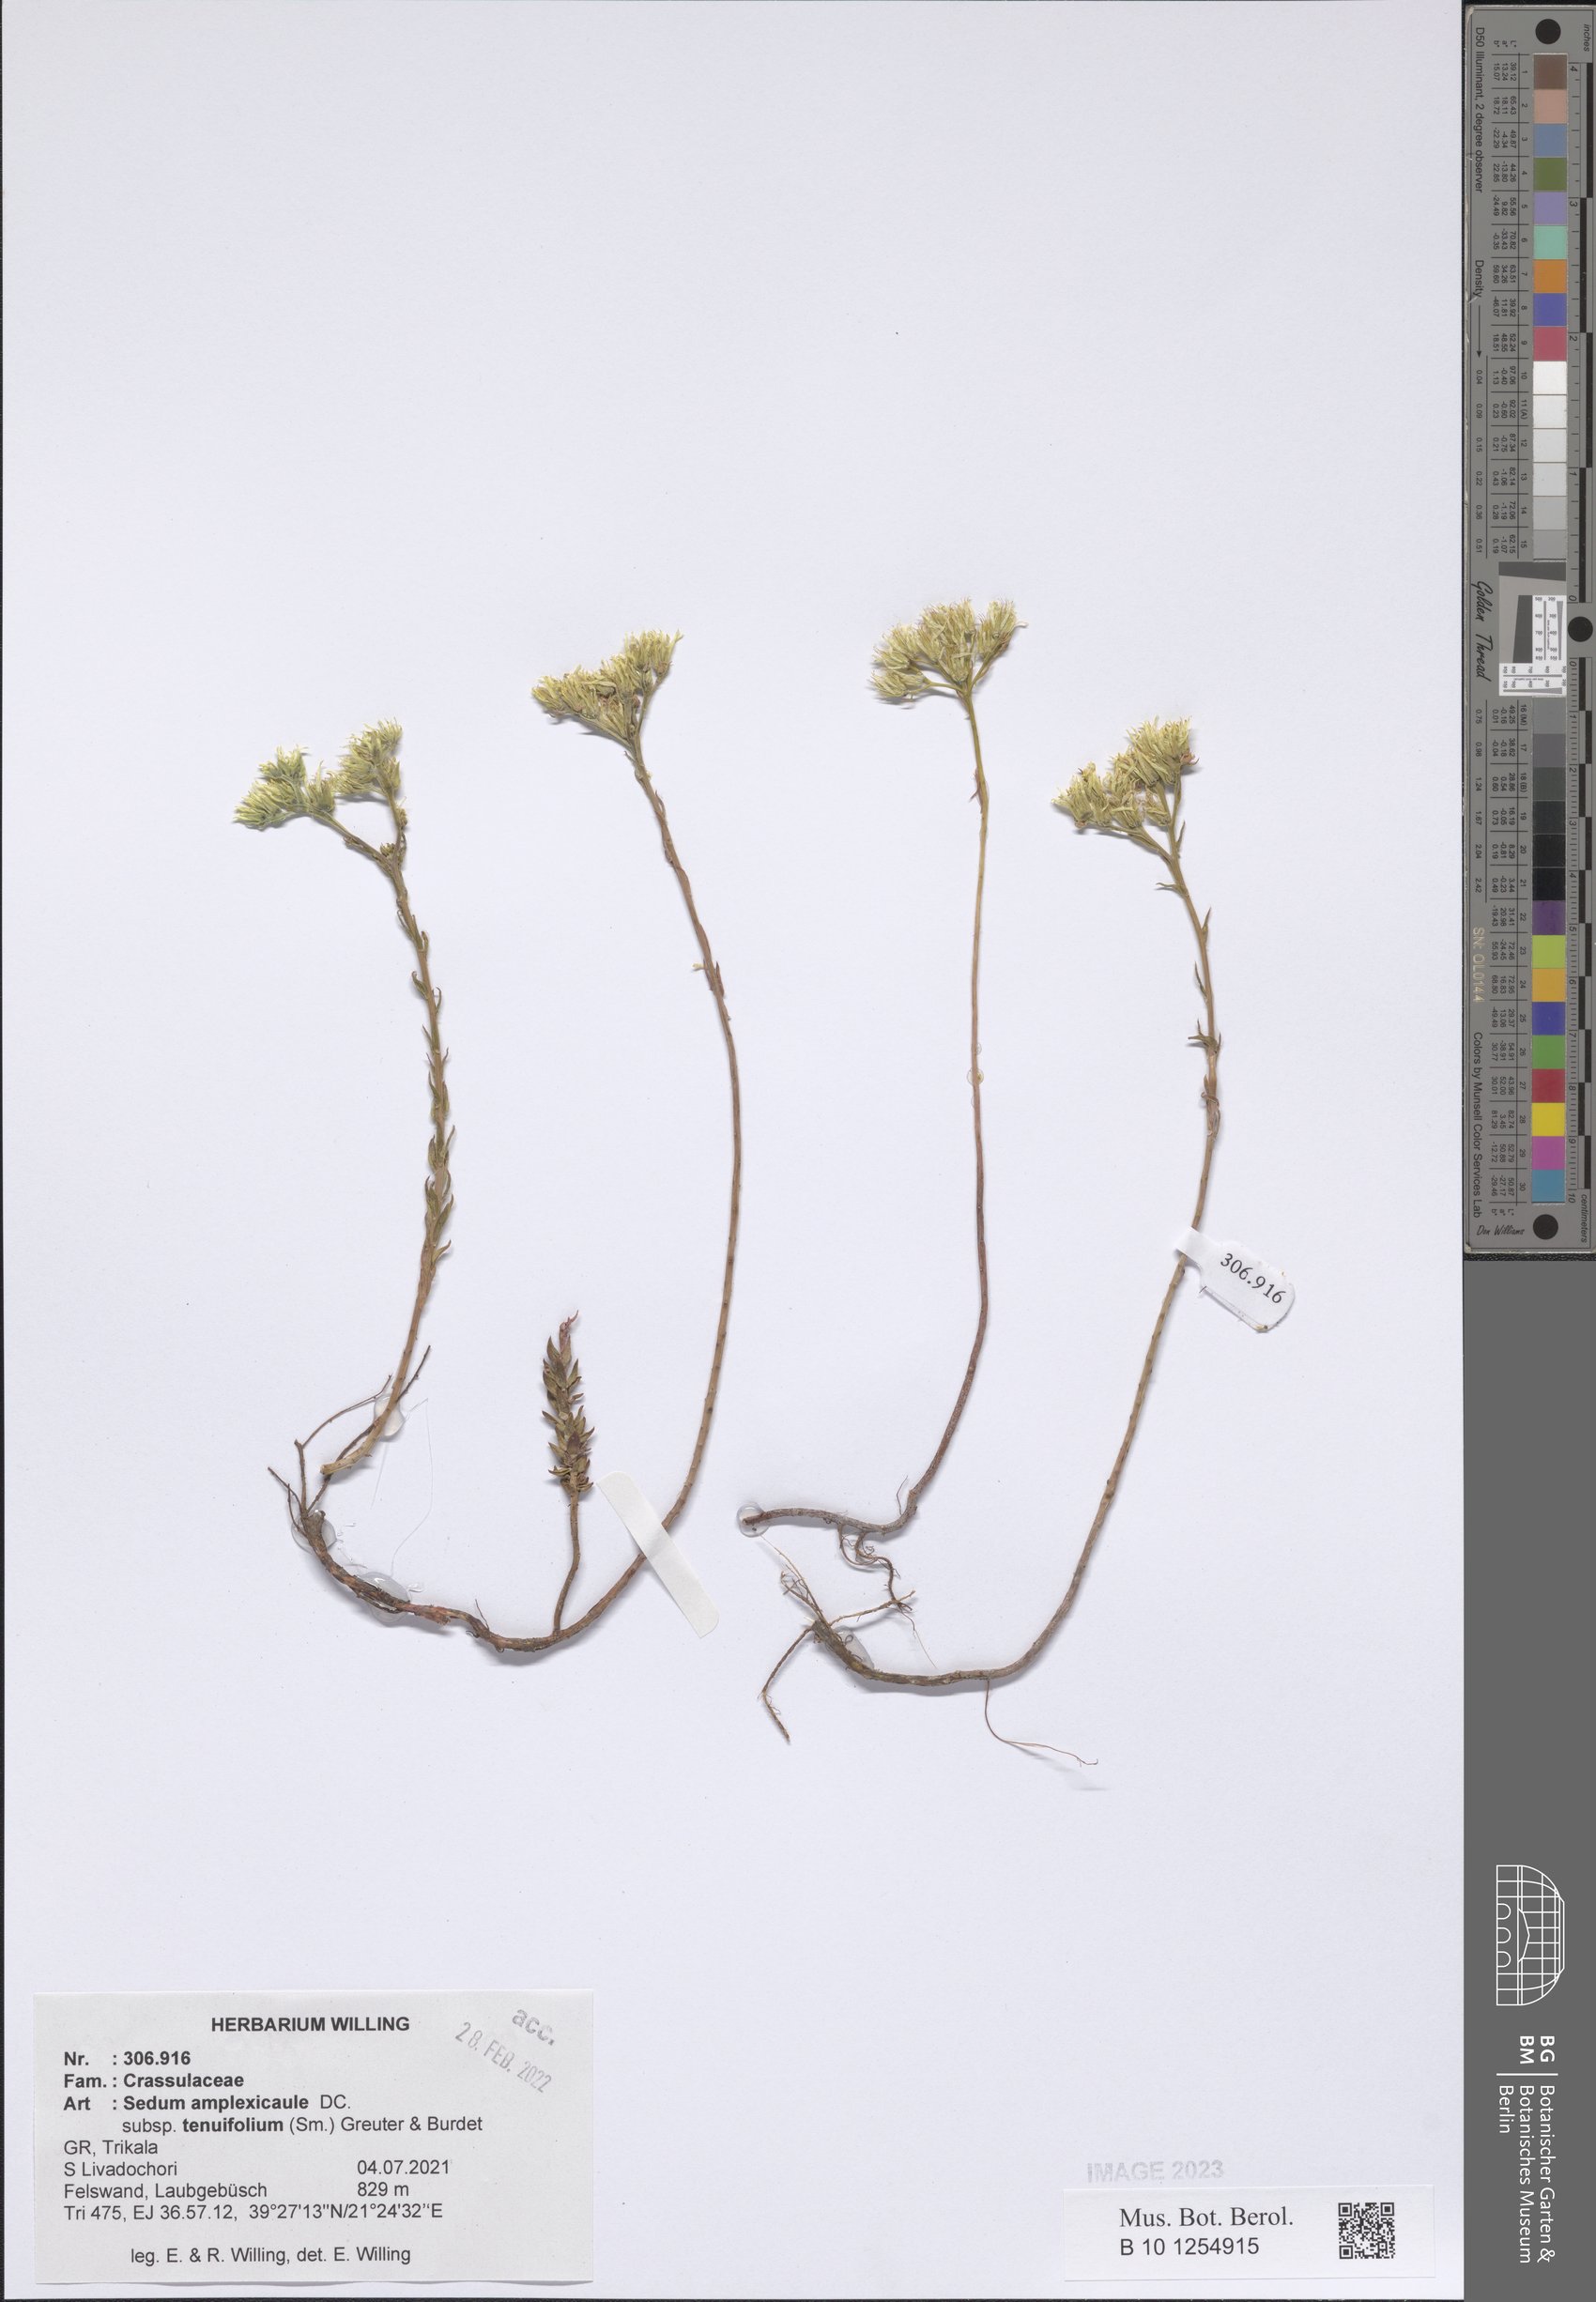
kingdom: Plantae
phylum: Tracheophyta
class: Magnoliopsida
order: Saxifragales
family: Crassulaceae
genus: Petrosedum
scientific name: Petrosedum tenuifolium
